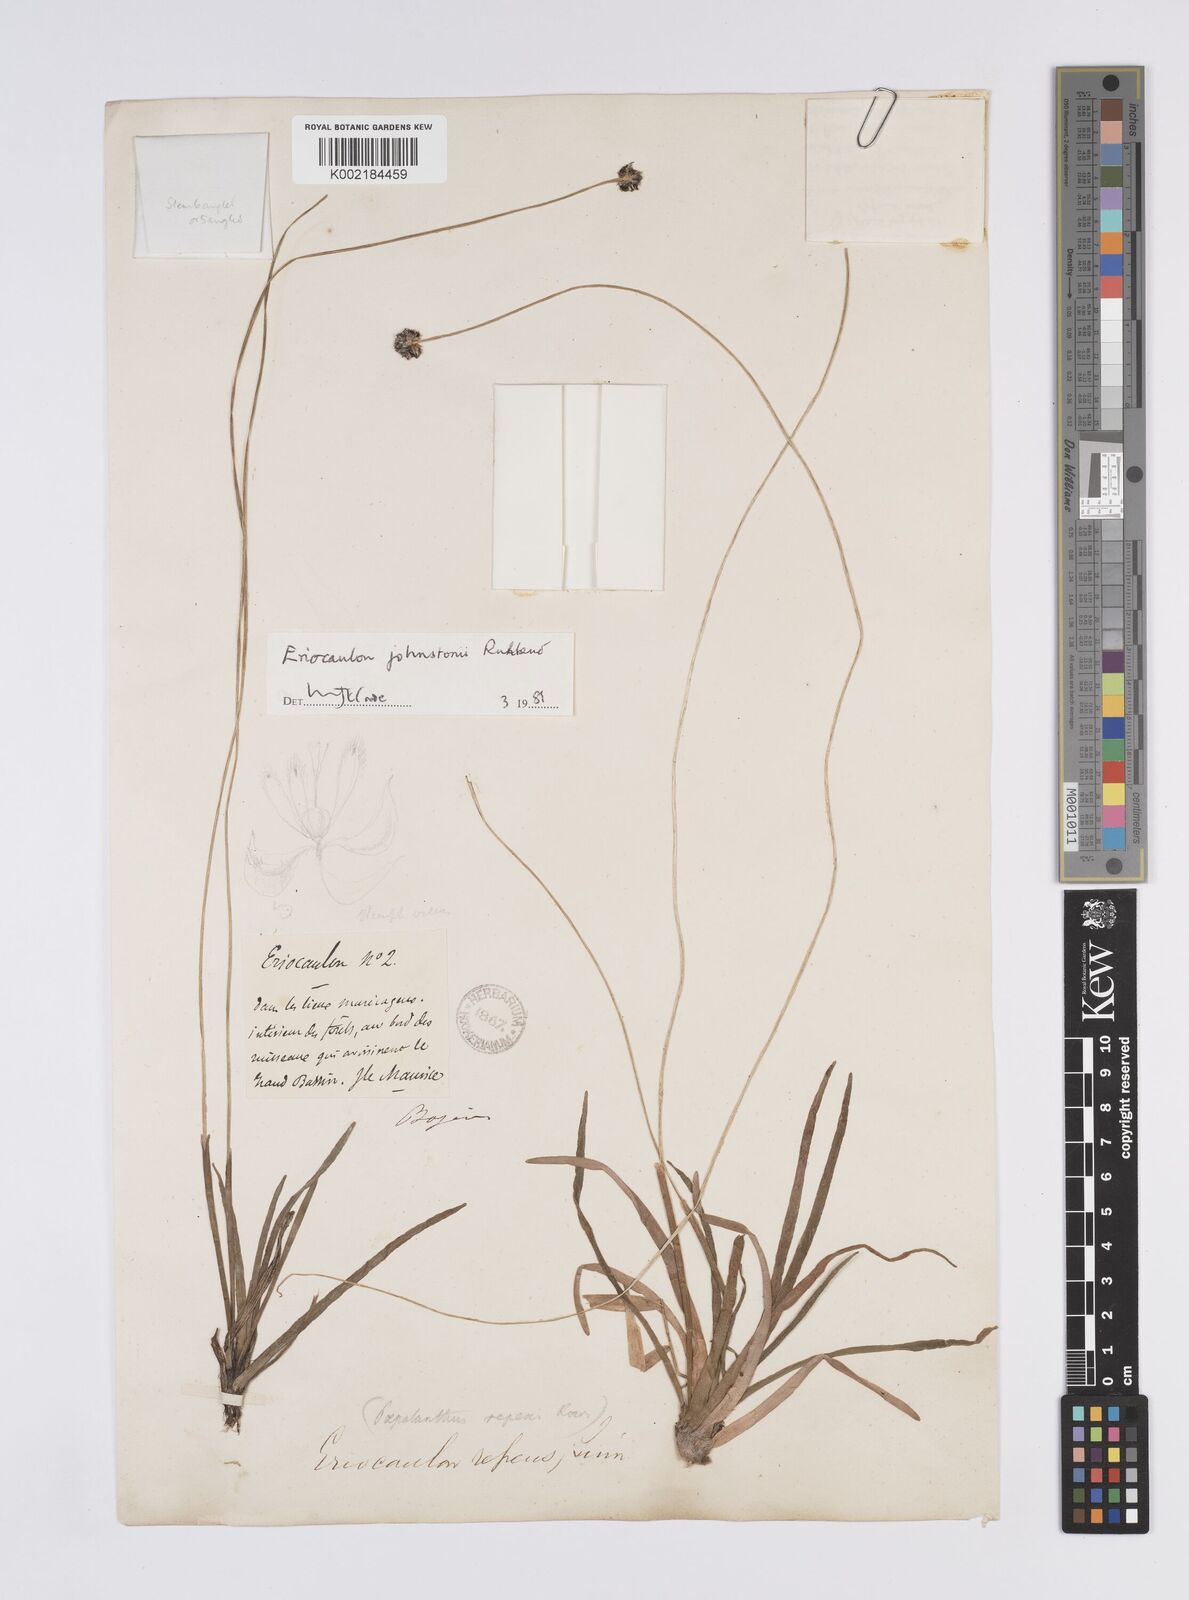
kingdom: Plantae
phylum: Tracheophyta
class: Liliopsida
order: Poales
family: Eriocaulaceae
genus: Eriocaulon
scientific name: Eriocaulon johnstonii
